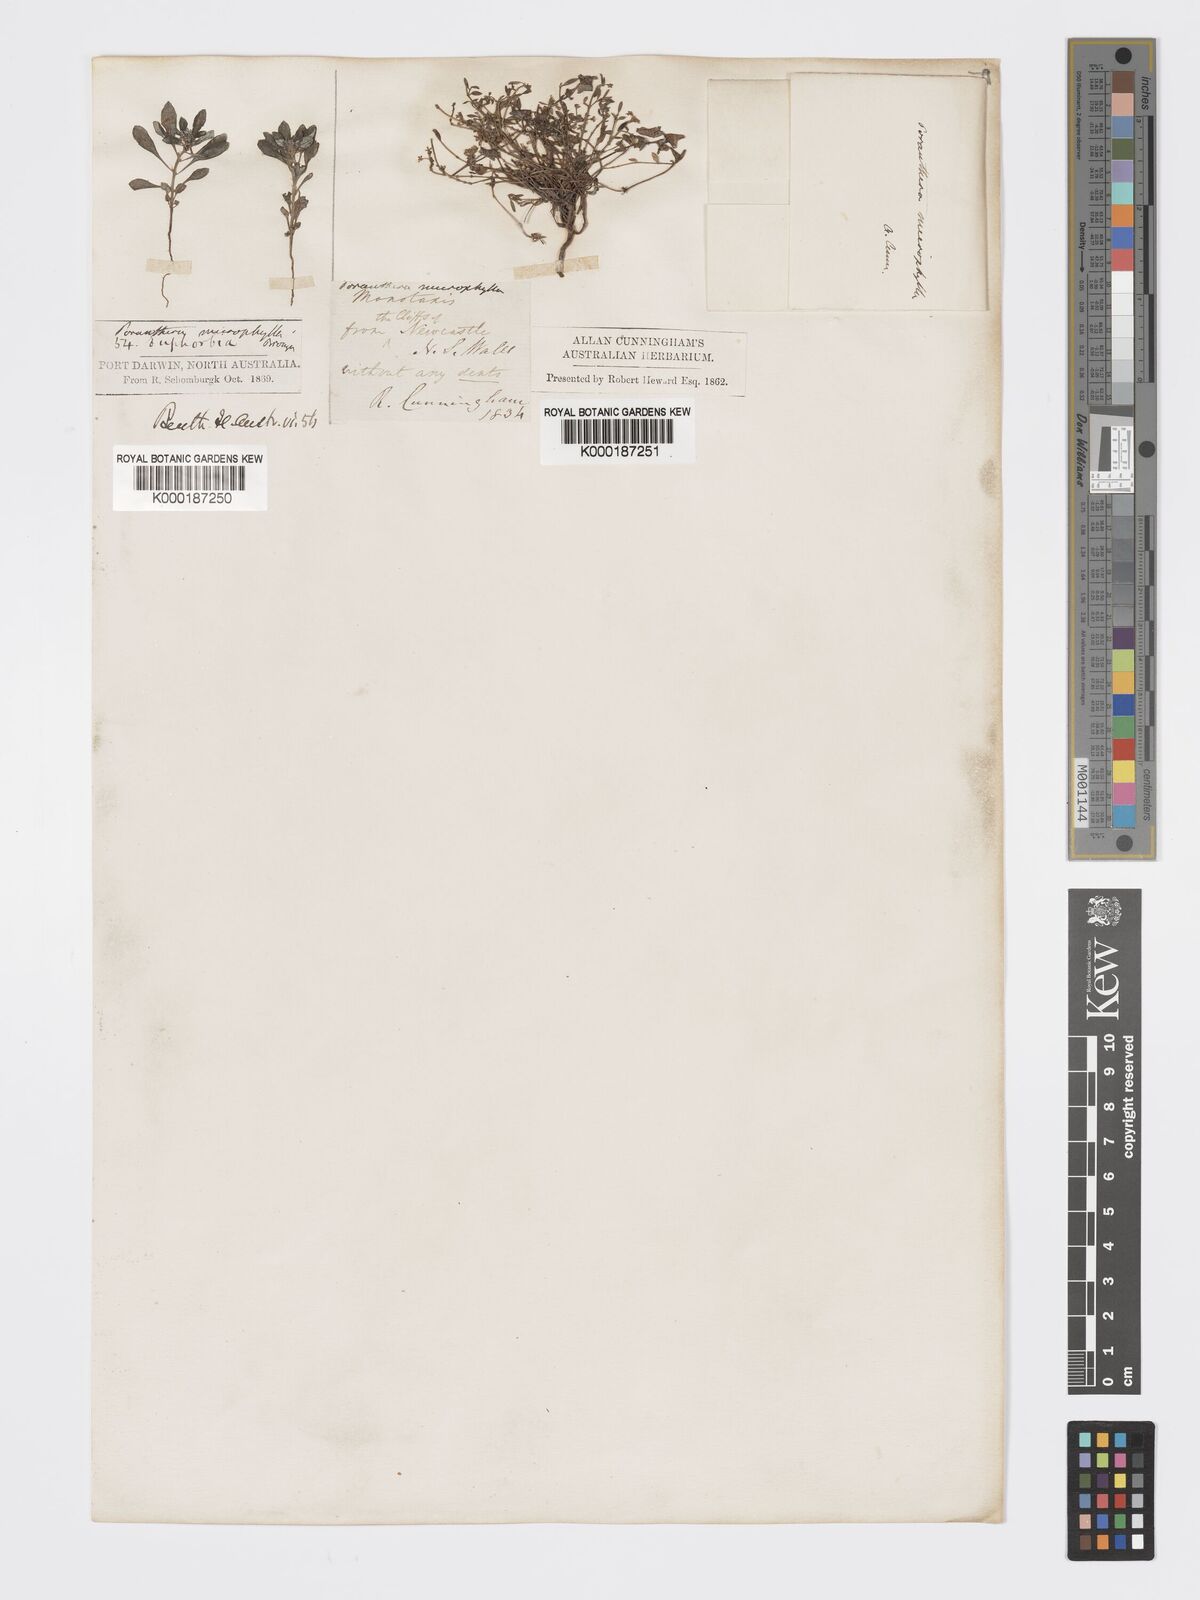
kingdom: Plantae
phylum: Tracheophyta
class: Magnoliopsida
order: Malpighiales
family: Phyllanthaceae
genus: Poranthera
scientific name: Poranthera microphylla
